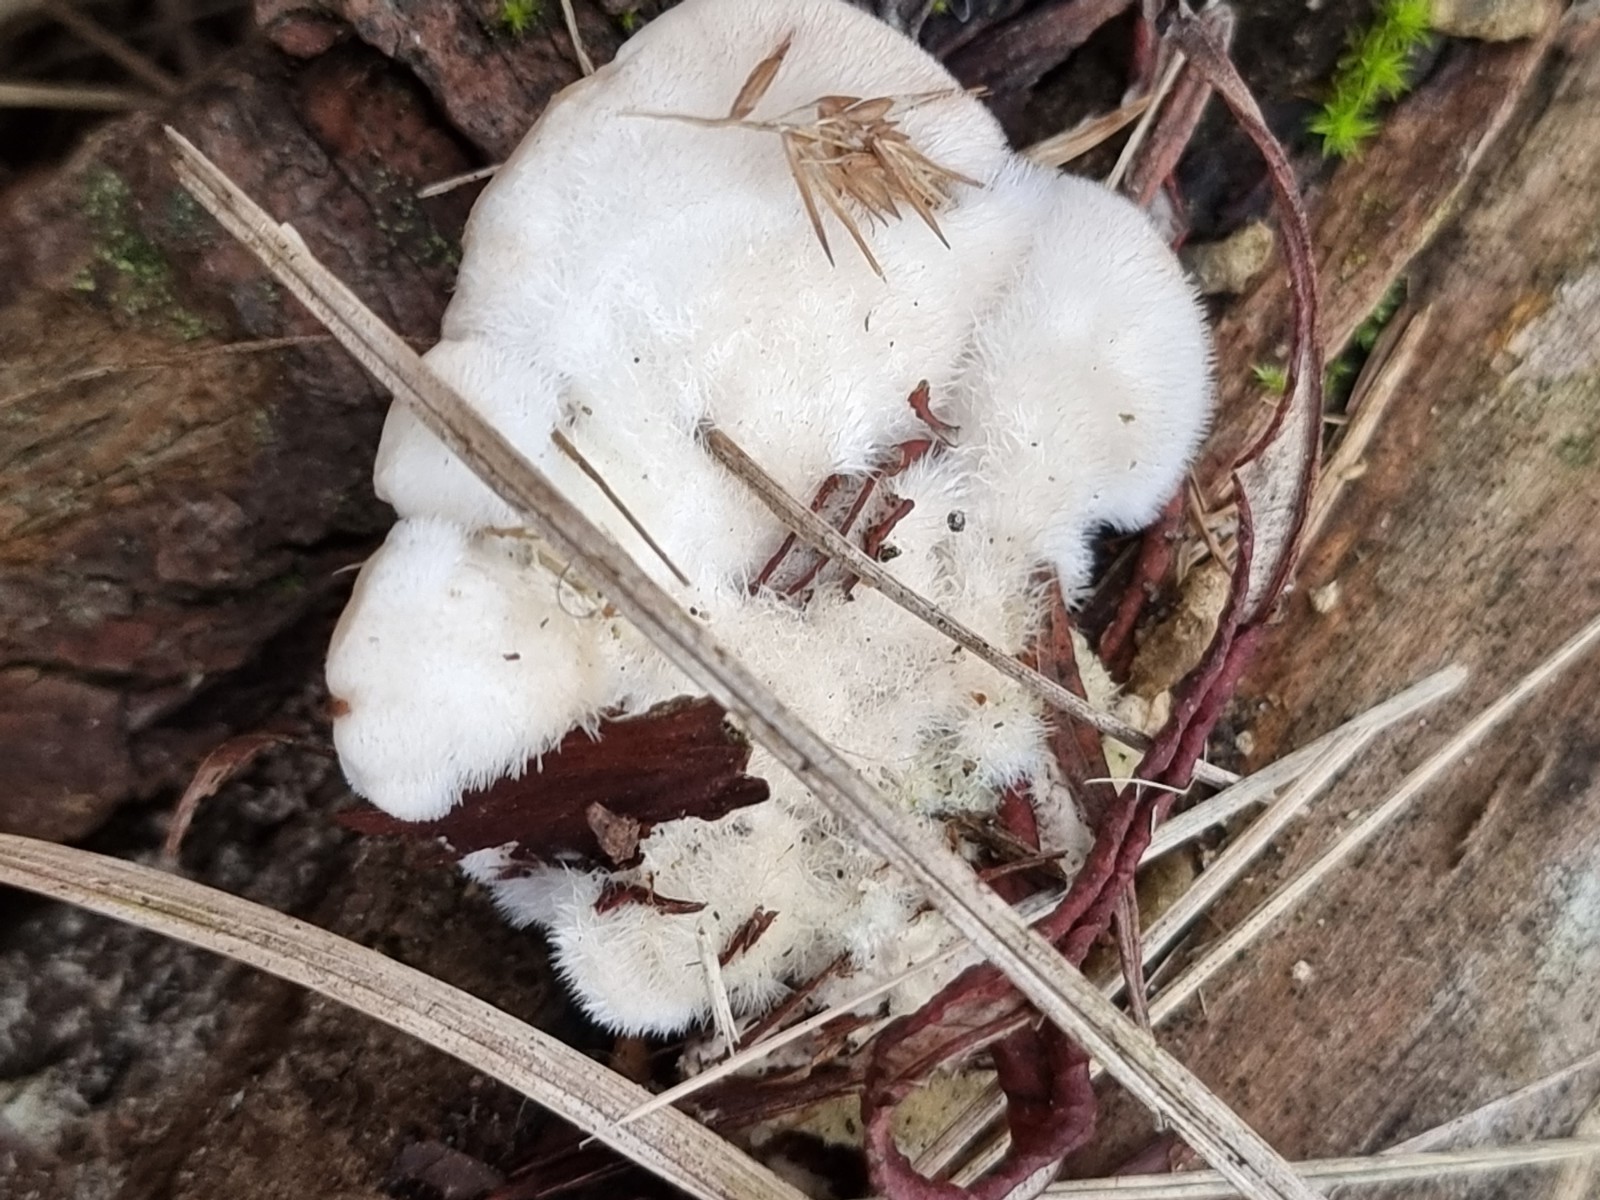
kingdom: Fungi
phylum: Basidiomycota
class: Agaricomycetes
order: Polyporales
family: Polyporaceae
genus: Trametes
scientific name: Trametes hirsuta
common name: håret læderporesvamp
